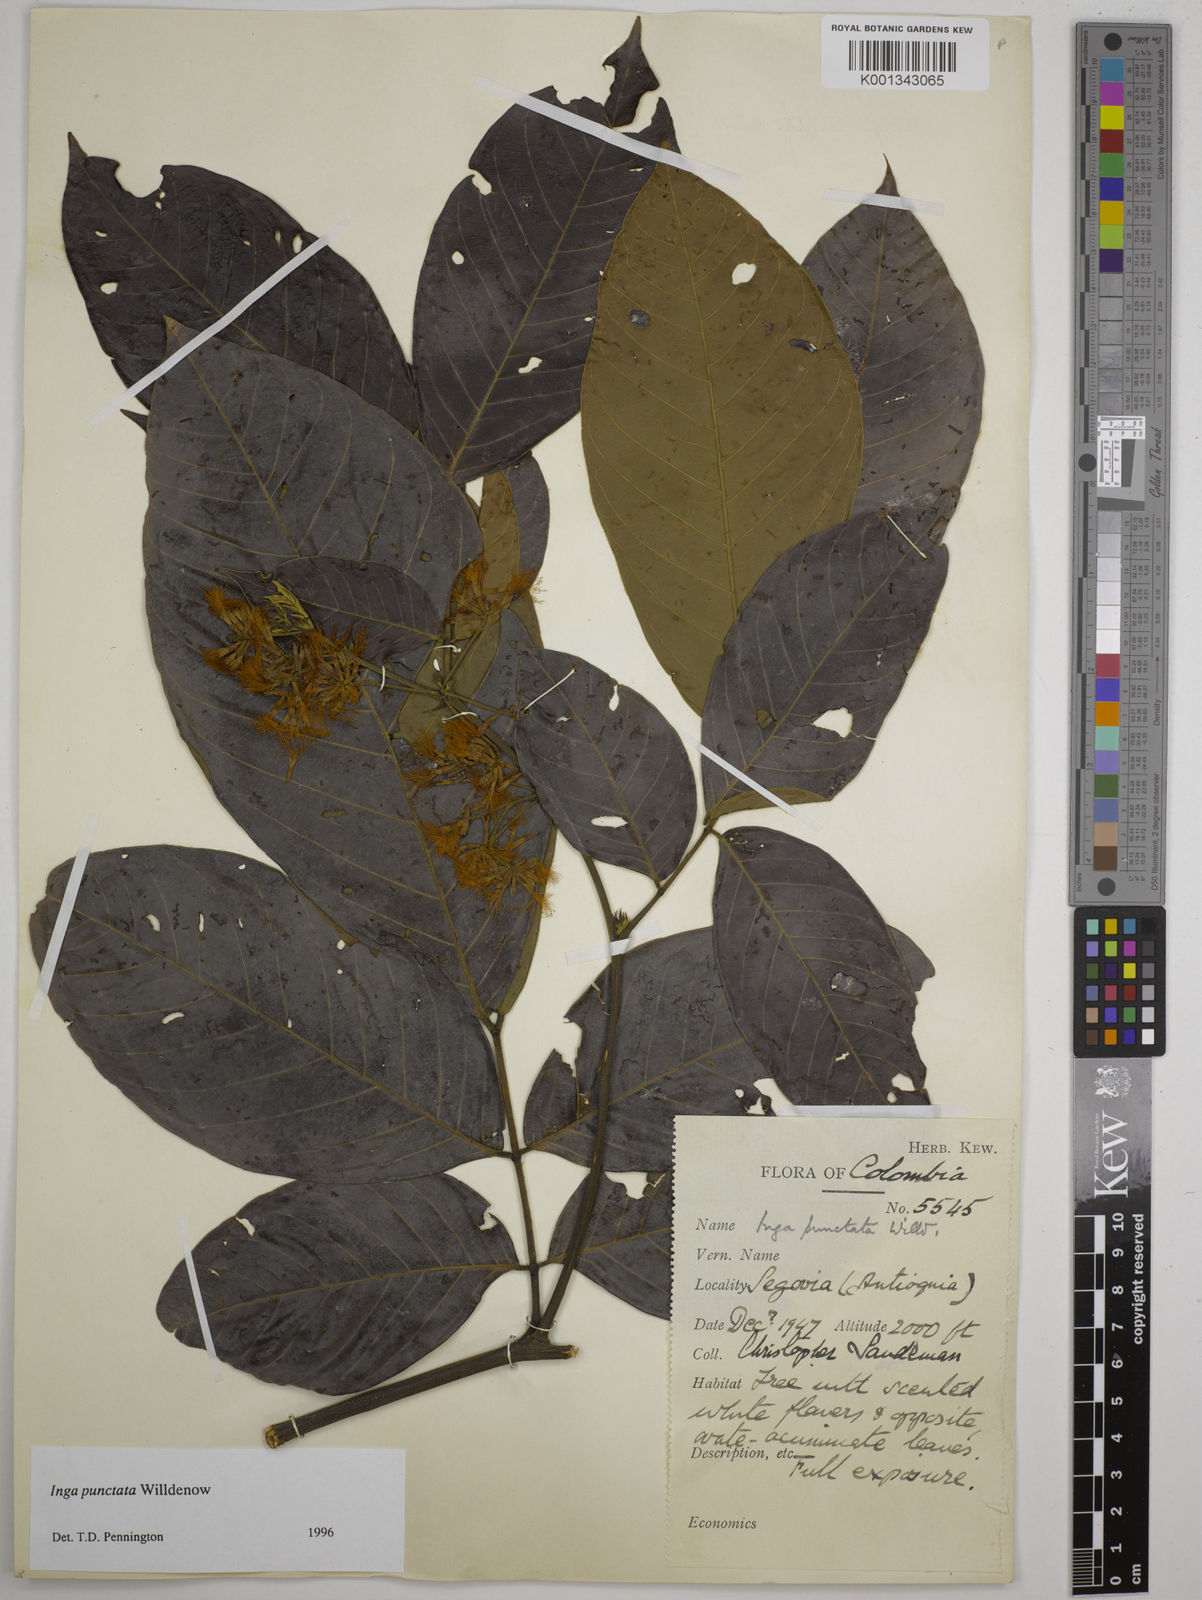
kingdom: Plantae
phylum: Tracheophyta
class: Magnoliopsida
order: Fabales
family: Fabaceae
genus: Inga
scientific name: Inga punctata
